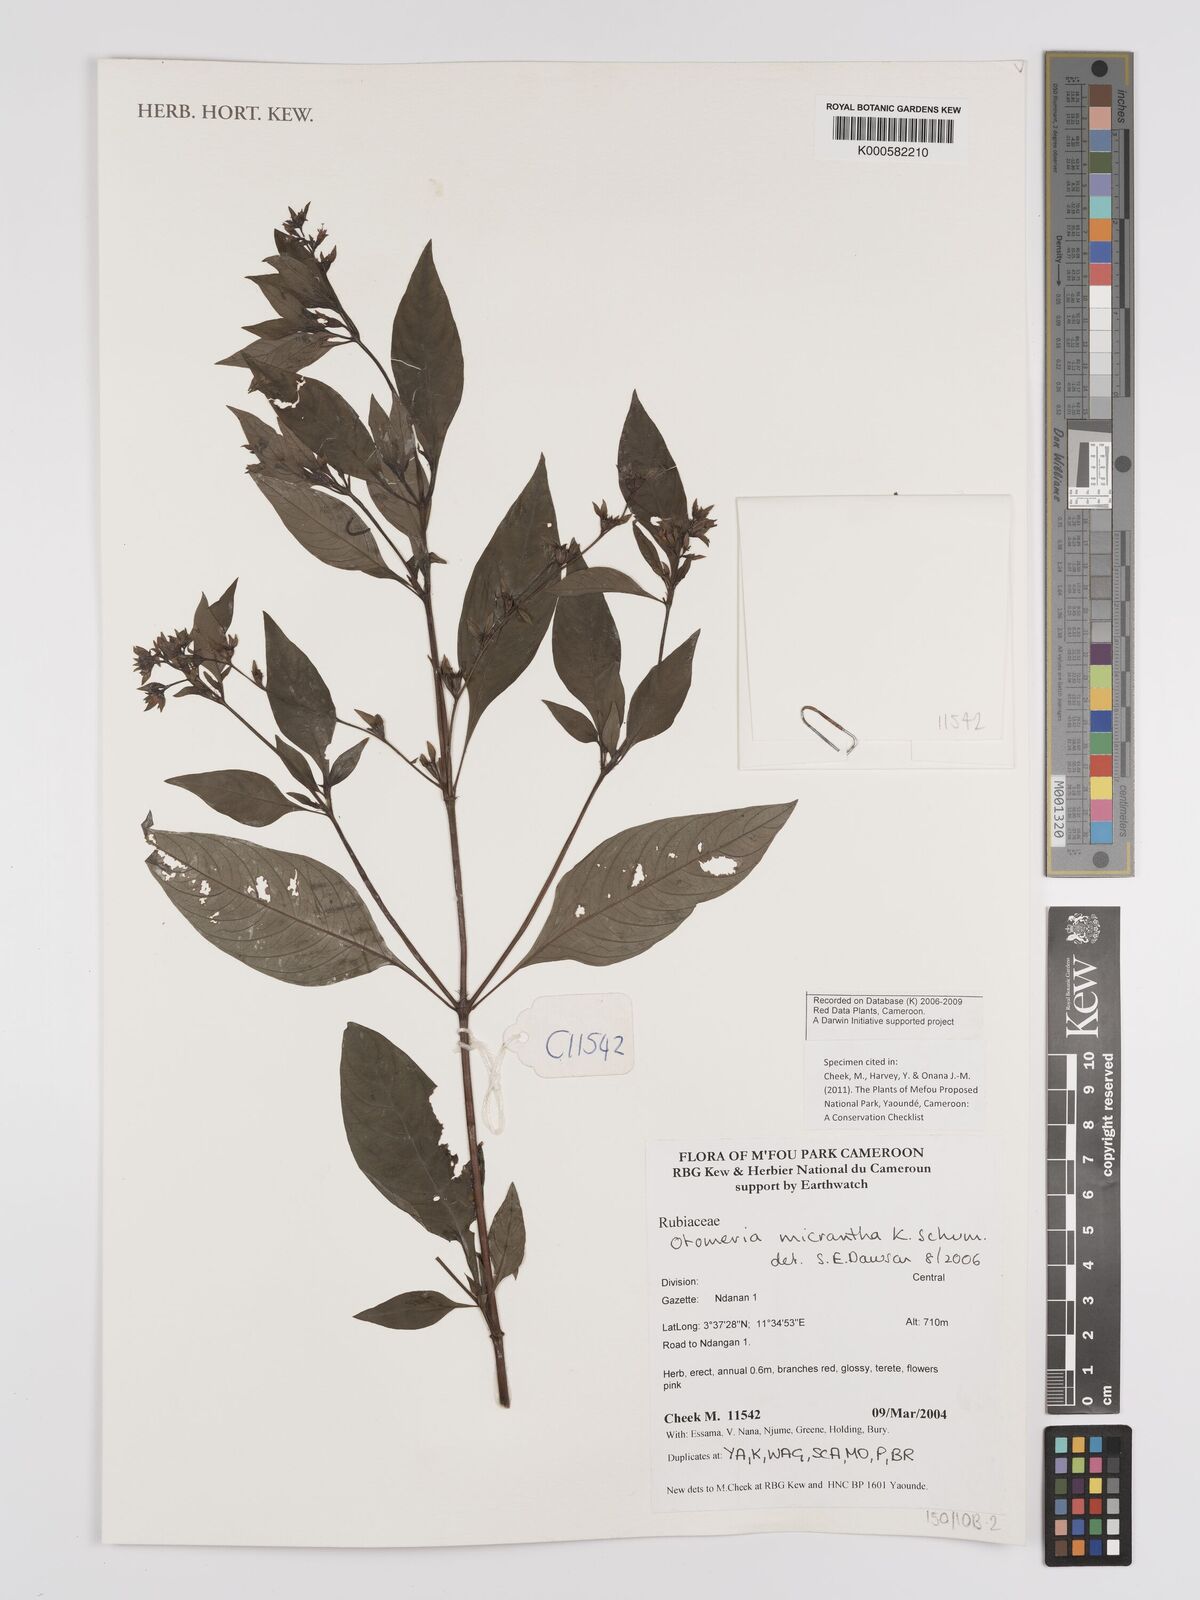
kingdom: Plantae
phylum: Tracheophyta
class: Magnoliopsida
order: Gentianales
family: Rubiaceae
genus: Otomeria
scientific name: Otomeria micrantha
